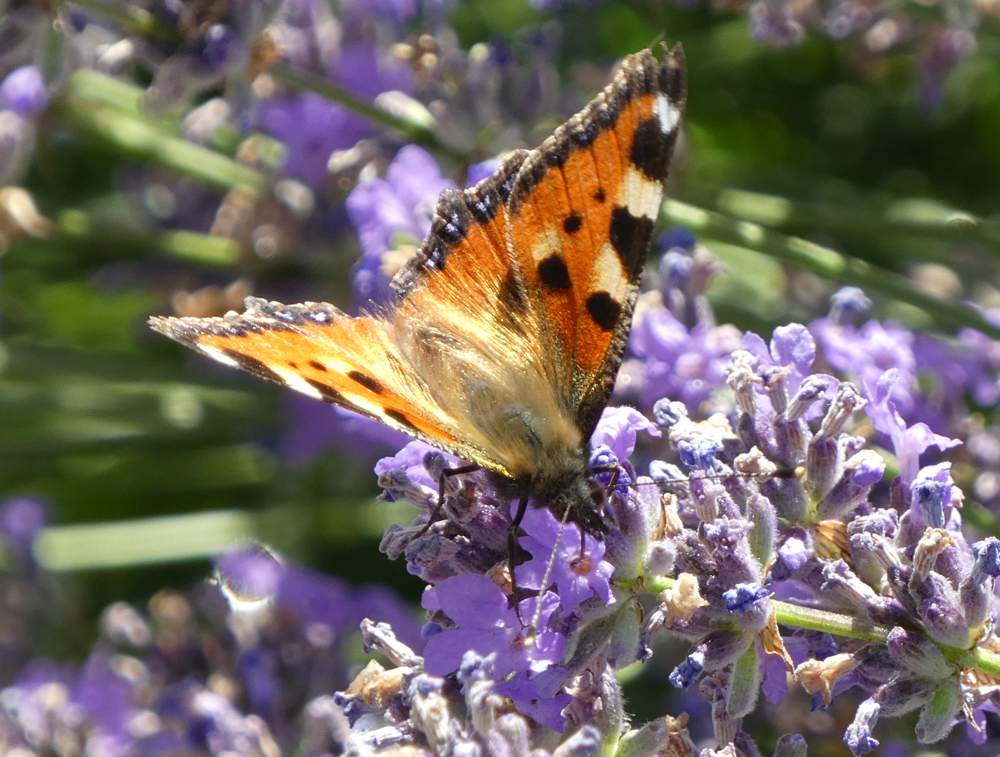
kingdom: Animalia
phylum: Arthropoda
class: Insecta
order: Lepidoptera
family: Nymphalidae
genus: Aglais
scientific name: Aglais urticae
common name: Small tortoiseshell
